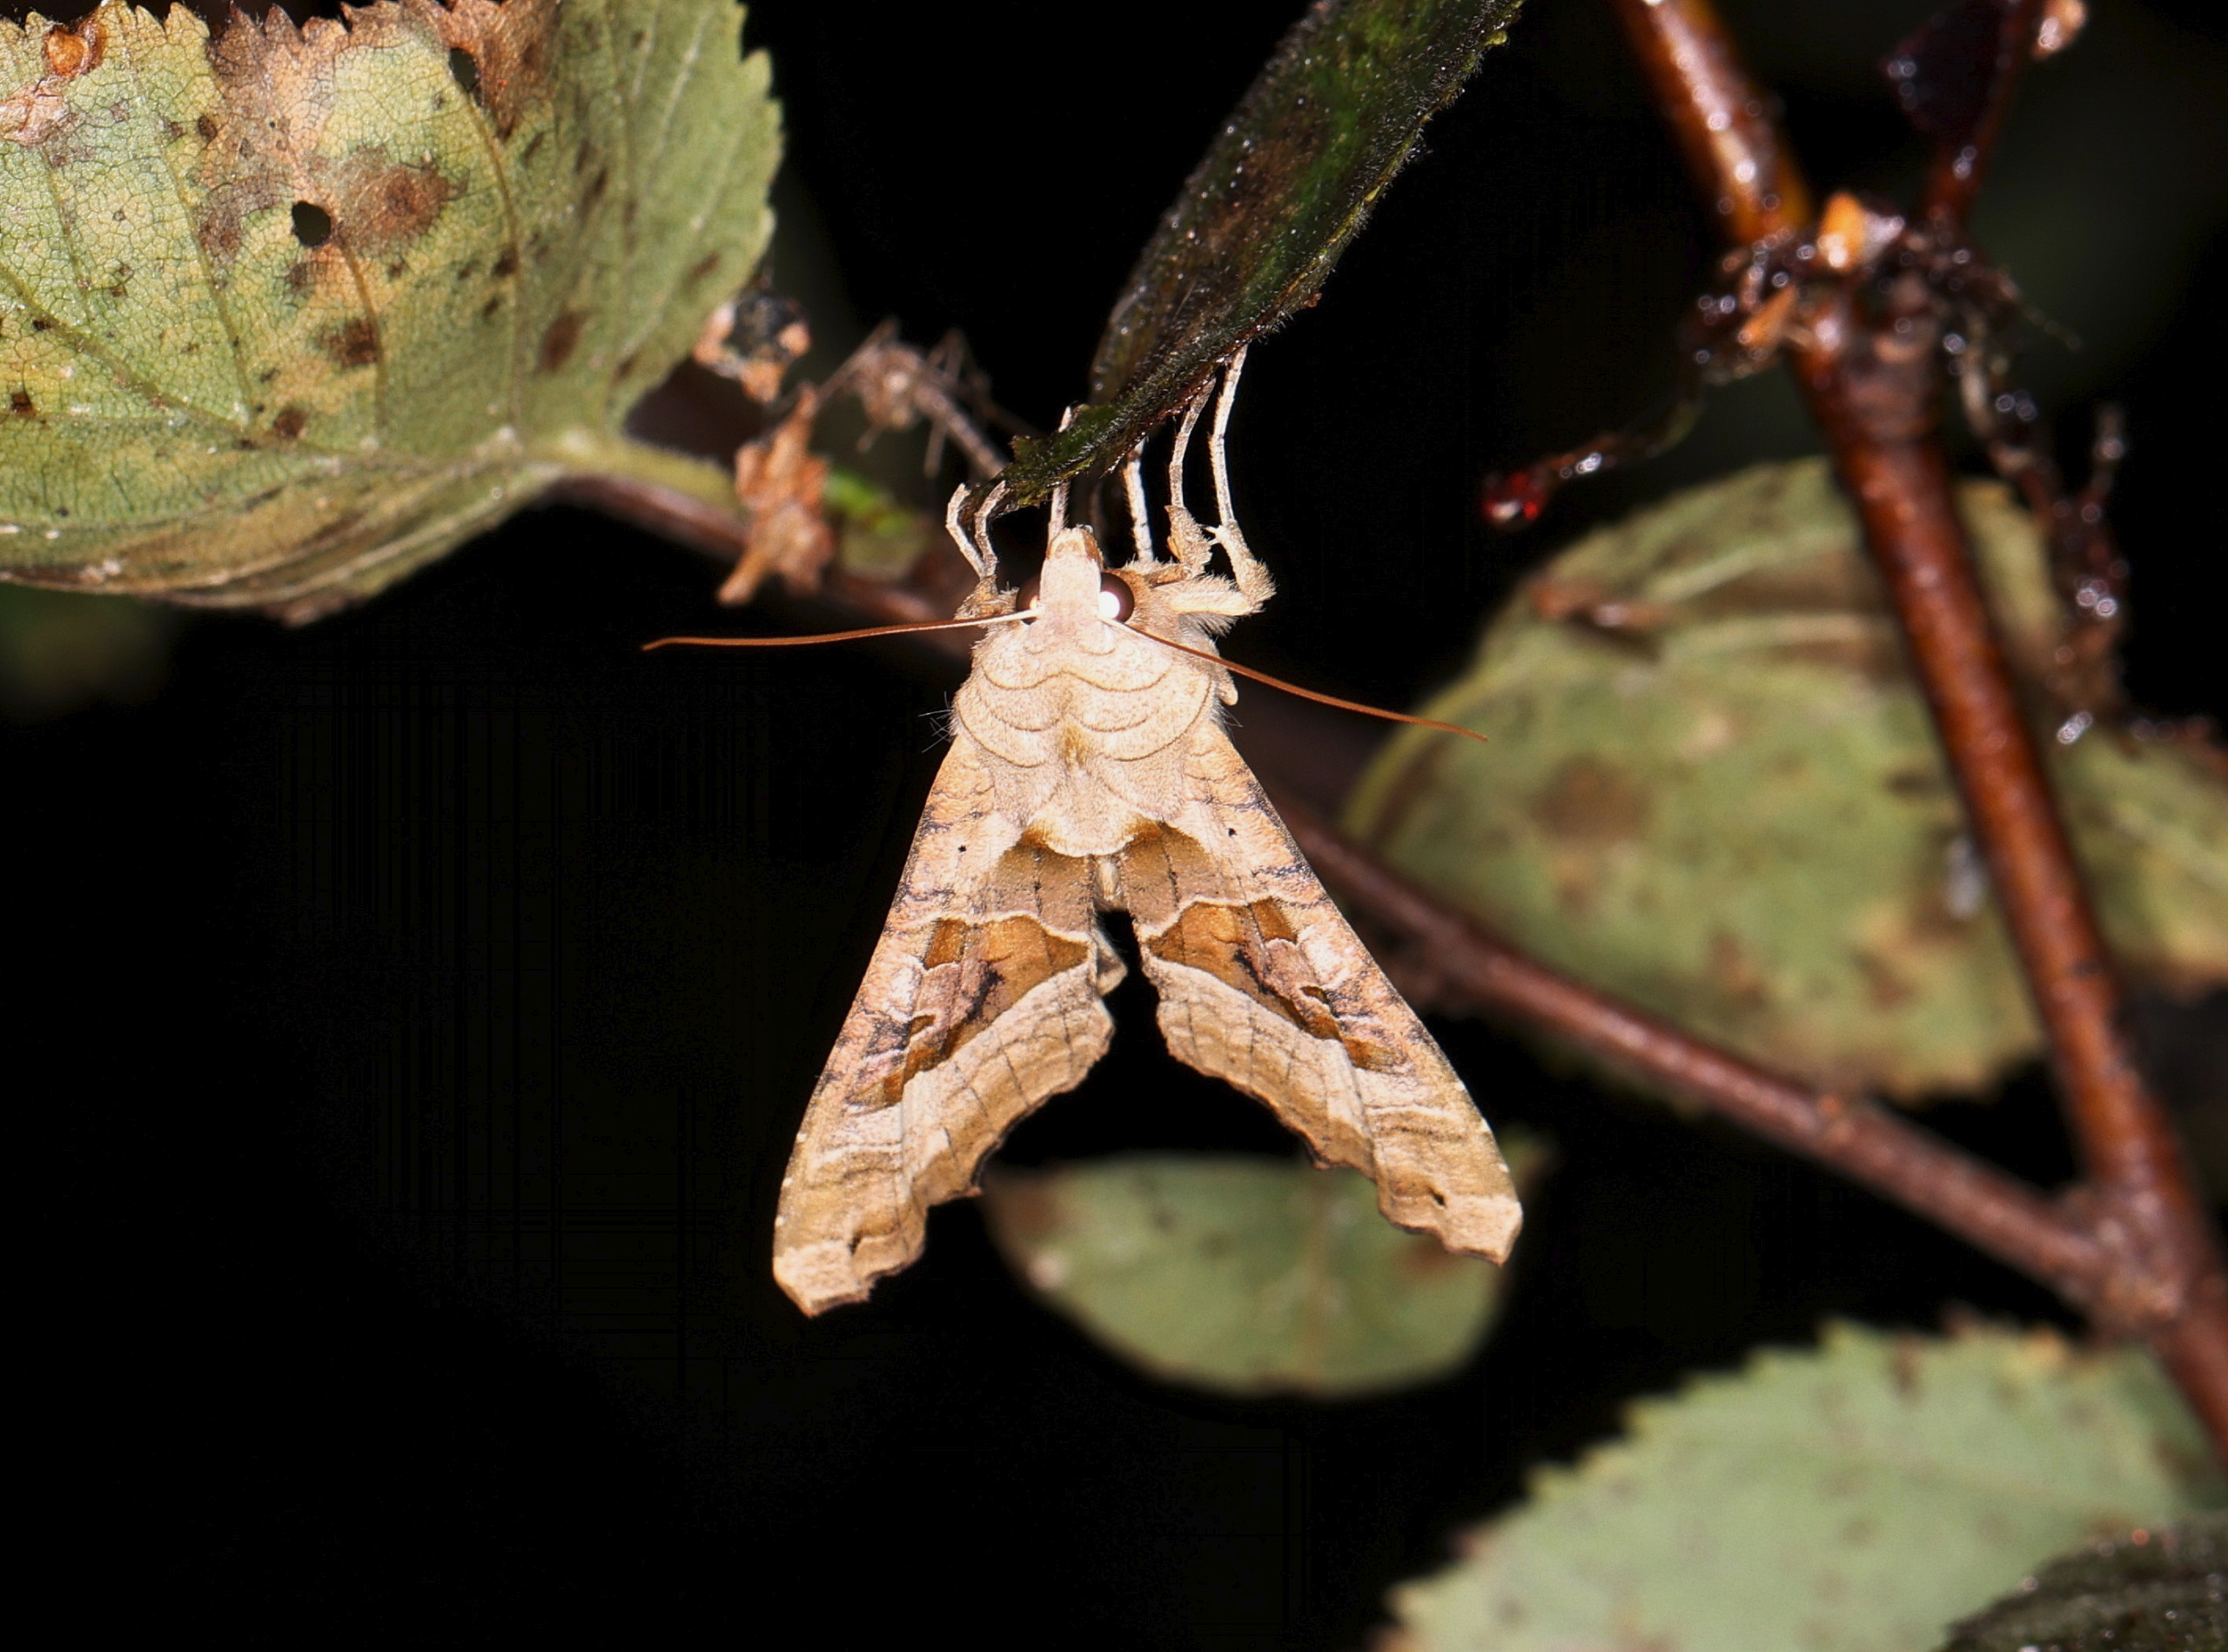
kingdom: Animalia
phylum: Arthropoda
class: Insecta
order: Lepidoptera
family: Noctuidae
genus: Phlogophora
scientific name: Phlogophora meticulosa
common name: Agatugle
